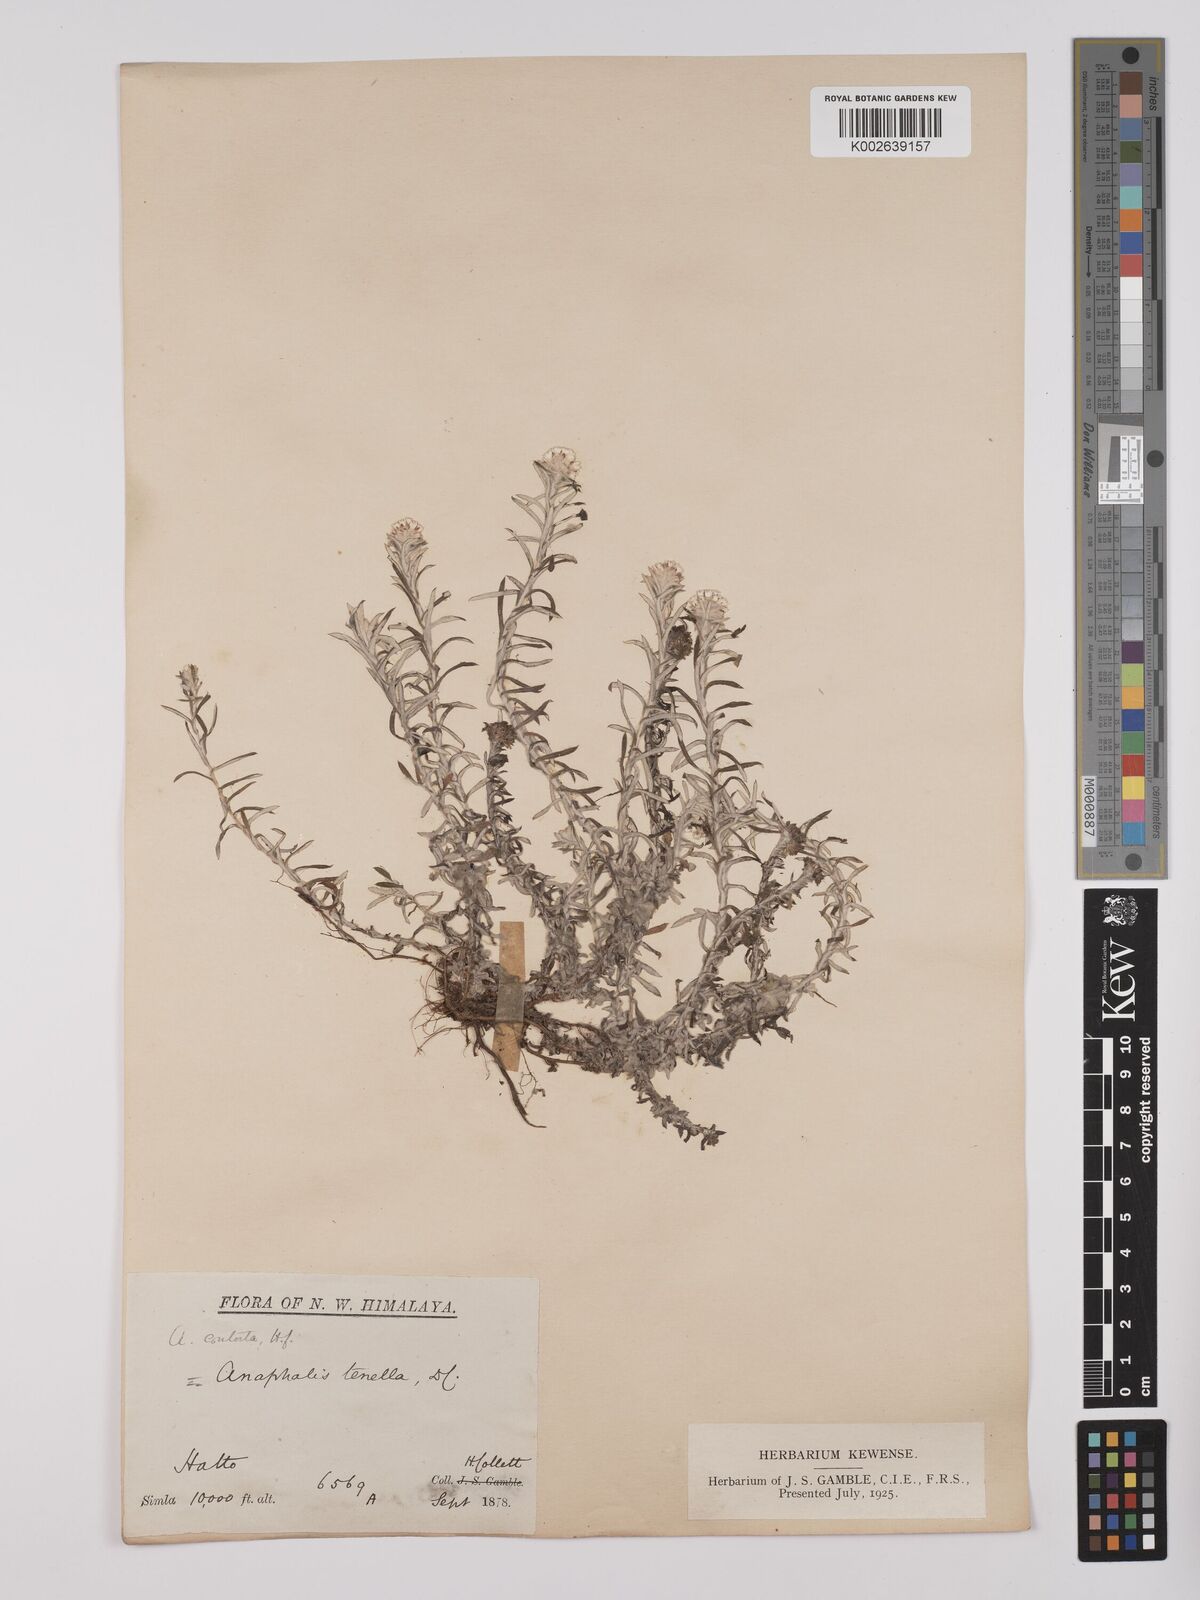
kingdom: Plantae
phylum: Tracheophyta
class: Magnoliopsida
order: Asterales
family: Asteraceae
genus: Anaphalis
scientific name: Anaphalis contorta
